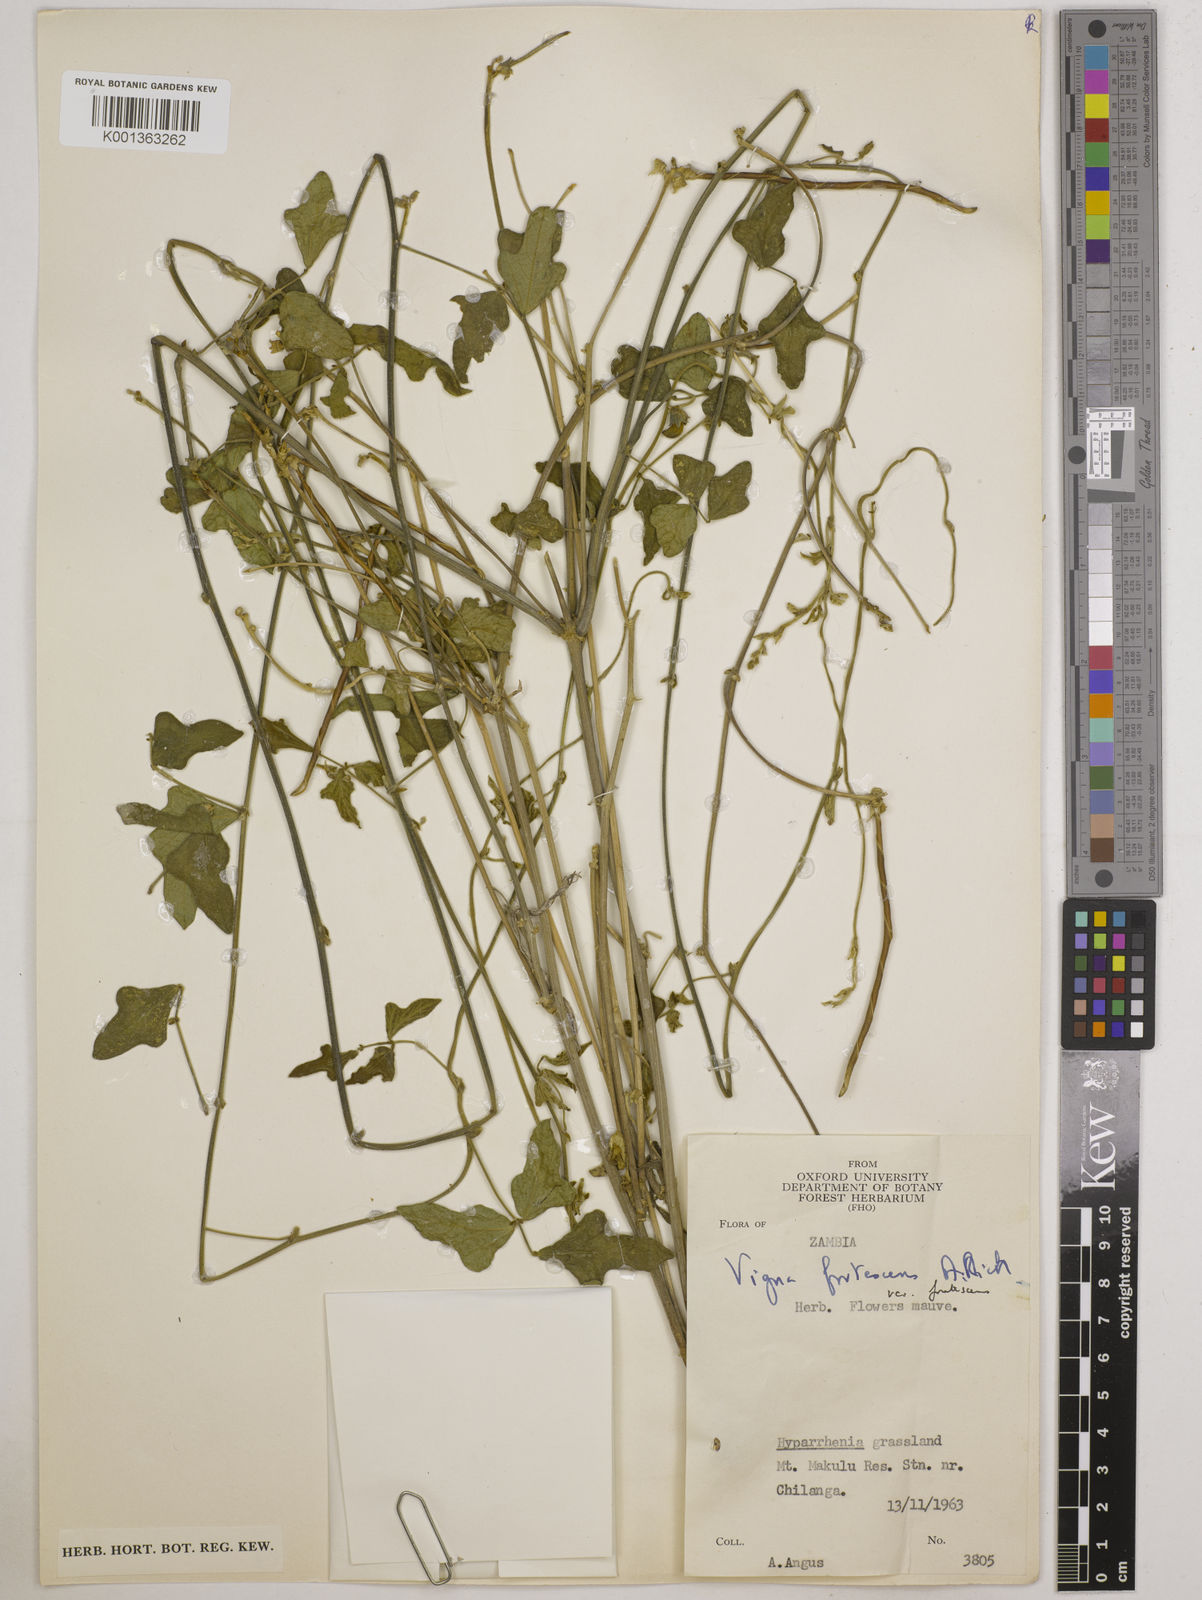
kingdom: Plantae
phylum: Tracheophyta
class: Magnoliopsida
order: Fabales
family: Fabaceae
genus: Vigna
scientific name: Vigna
